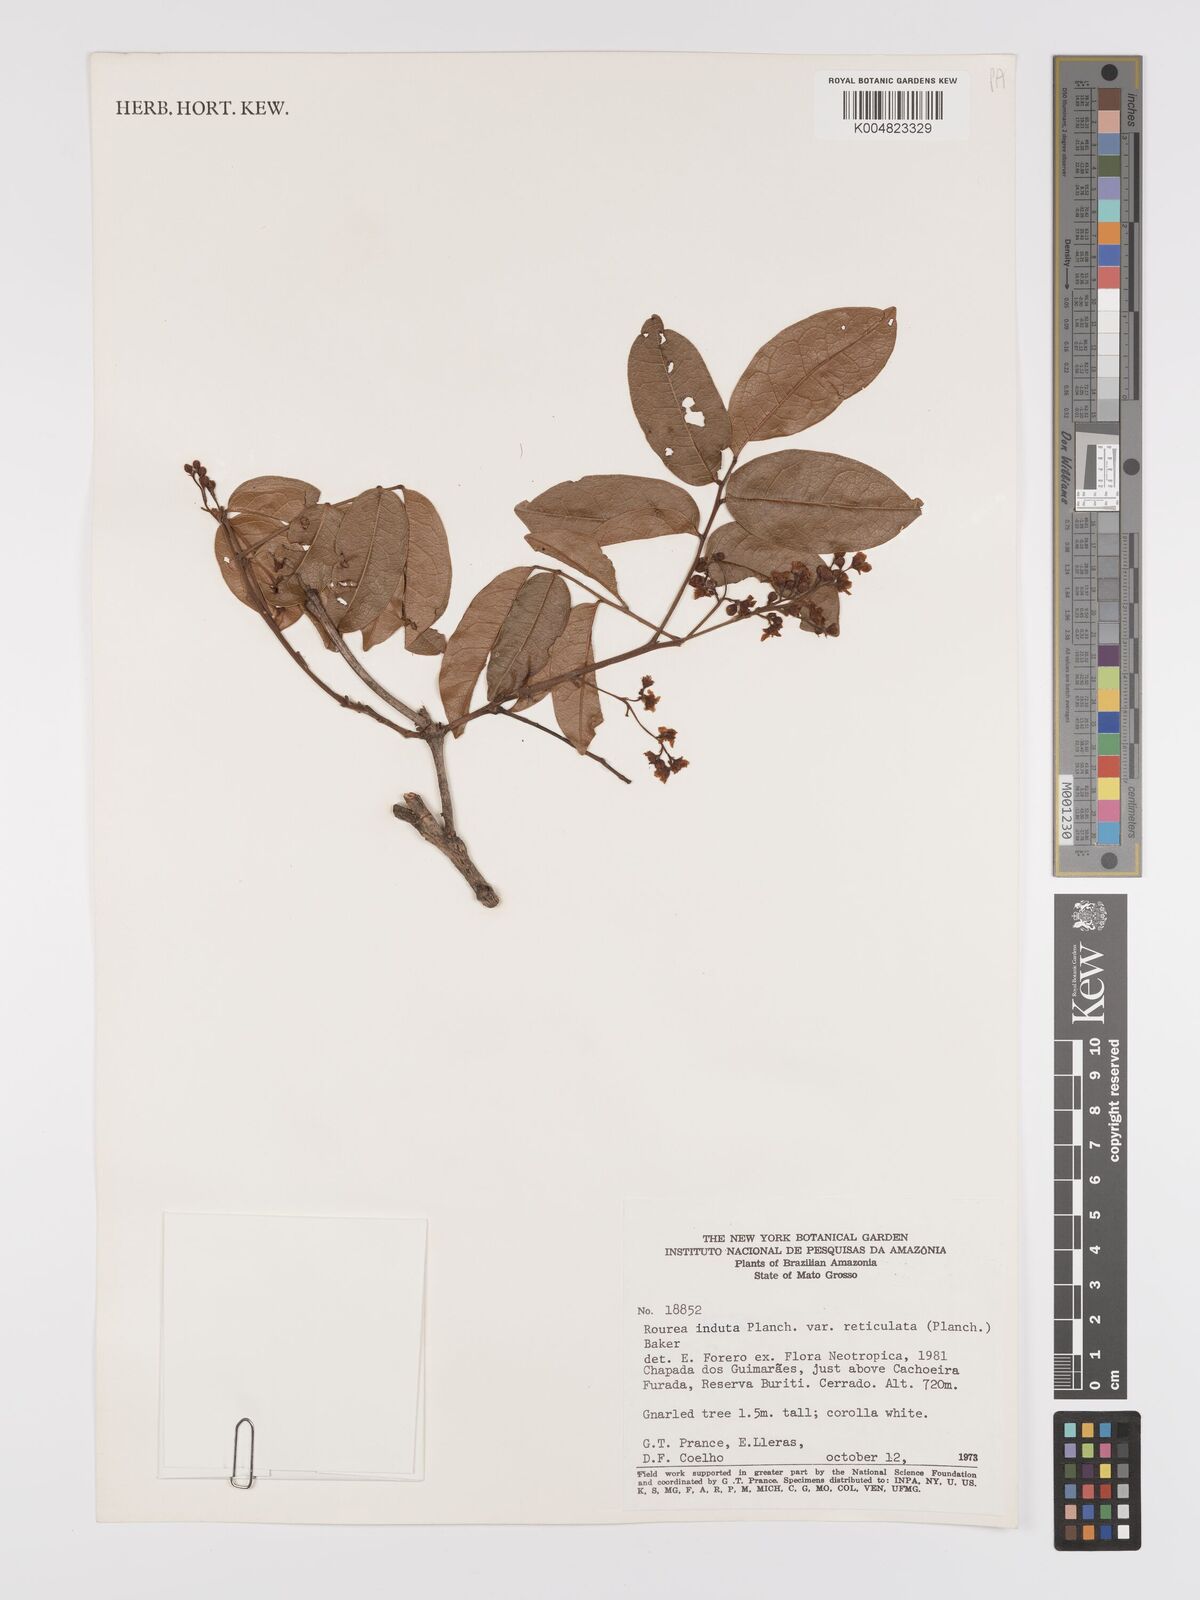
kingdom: Plantae
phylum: Tracheophyta
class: Magnoliopsida
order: Oxalidales
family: Connaraceae
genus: Rourea
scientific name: Rourea induta
